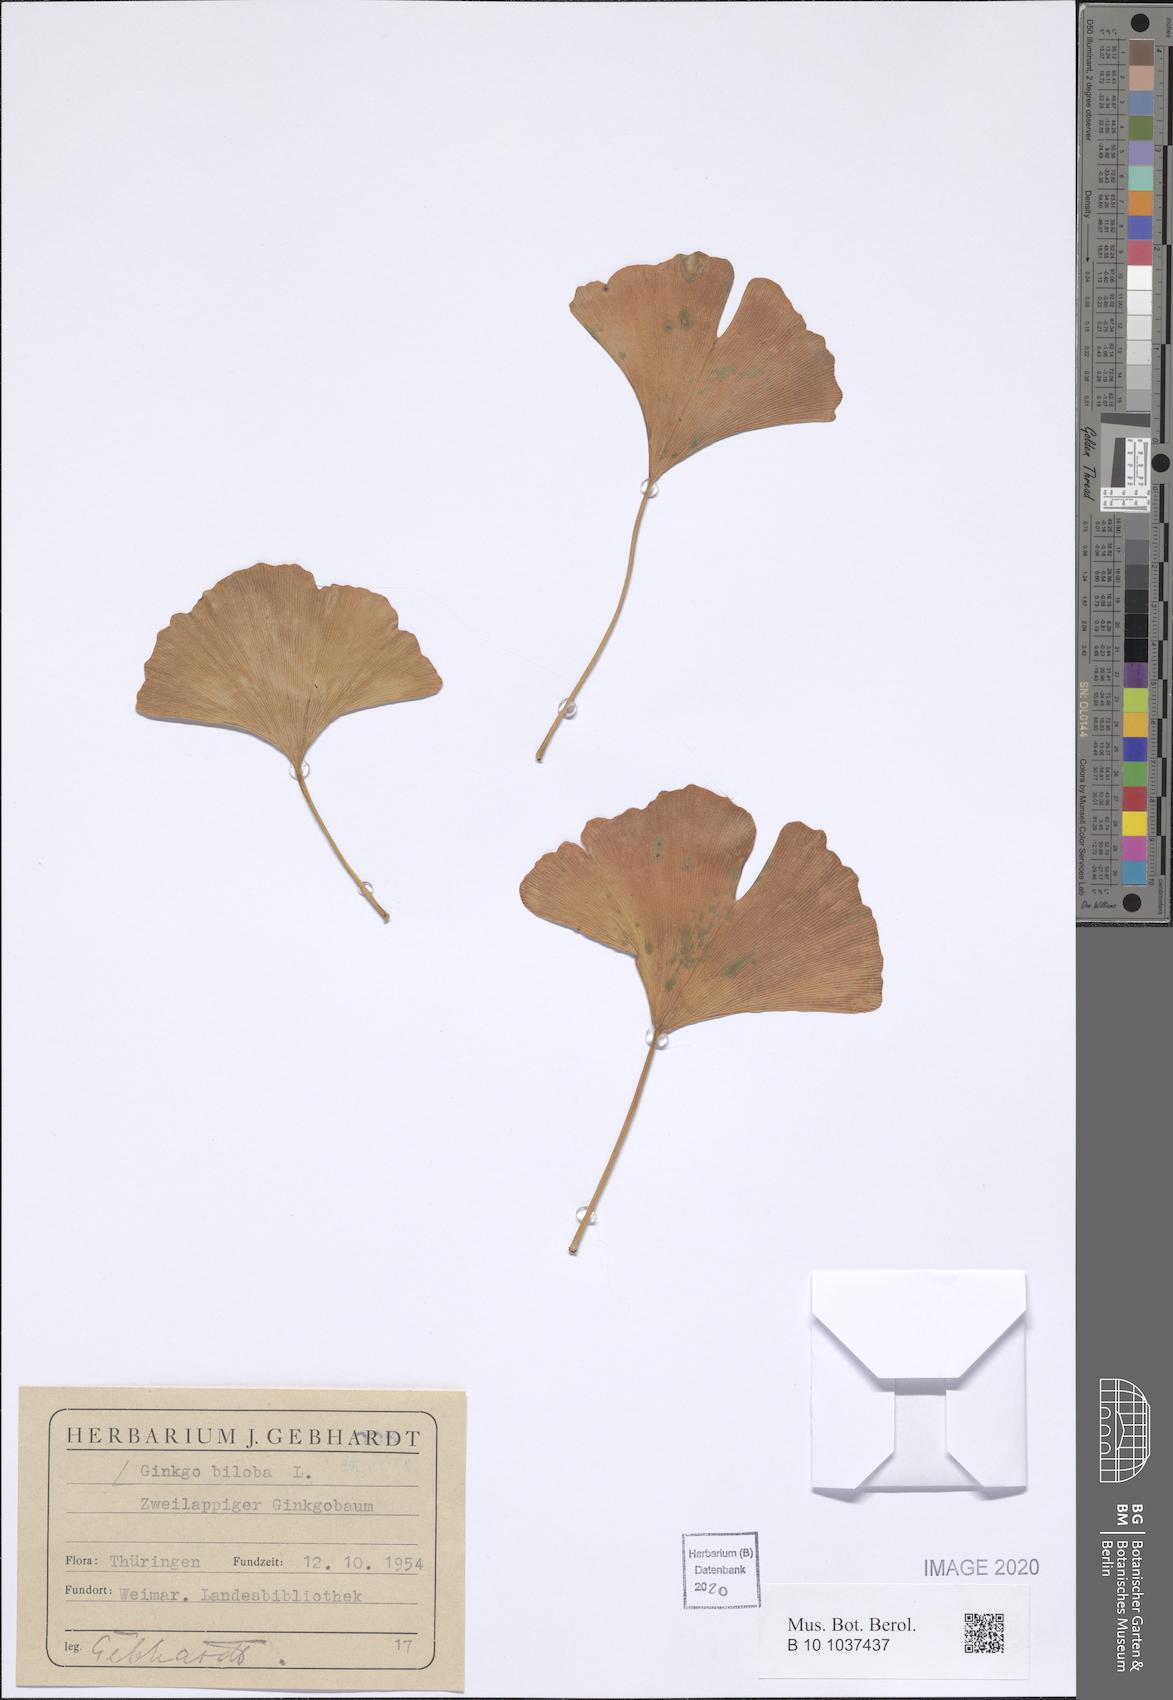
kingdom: Plantae
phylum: Tracheophyta
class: Ginkgoopsida
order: Ginkgoales
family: Ginkgoaceae
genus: Ginkgo
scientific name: Ginkgo biloba
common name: Ginkgo
